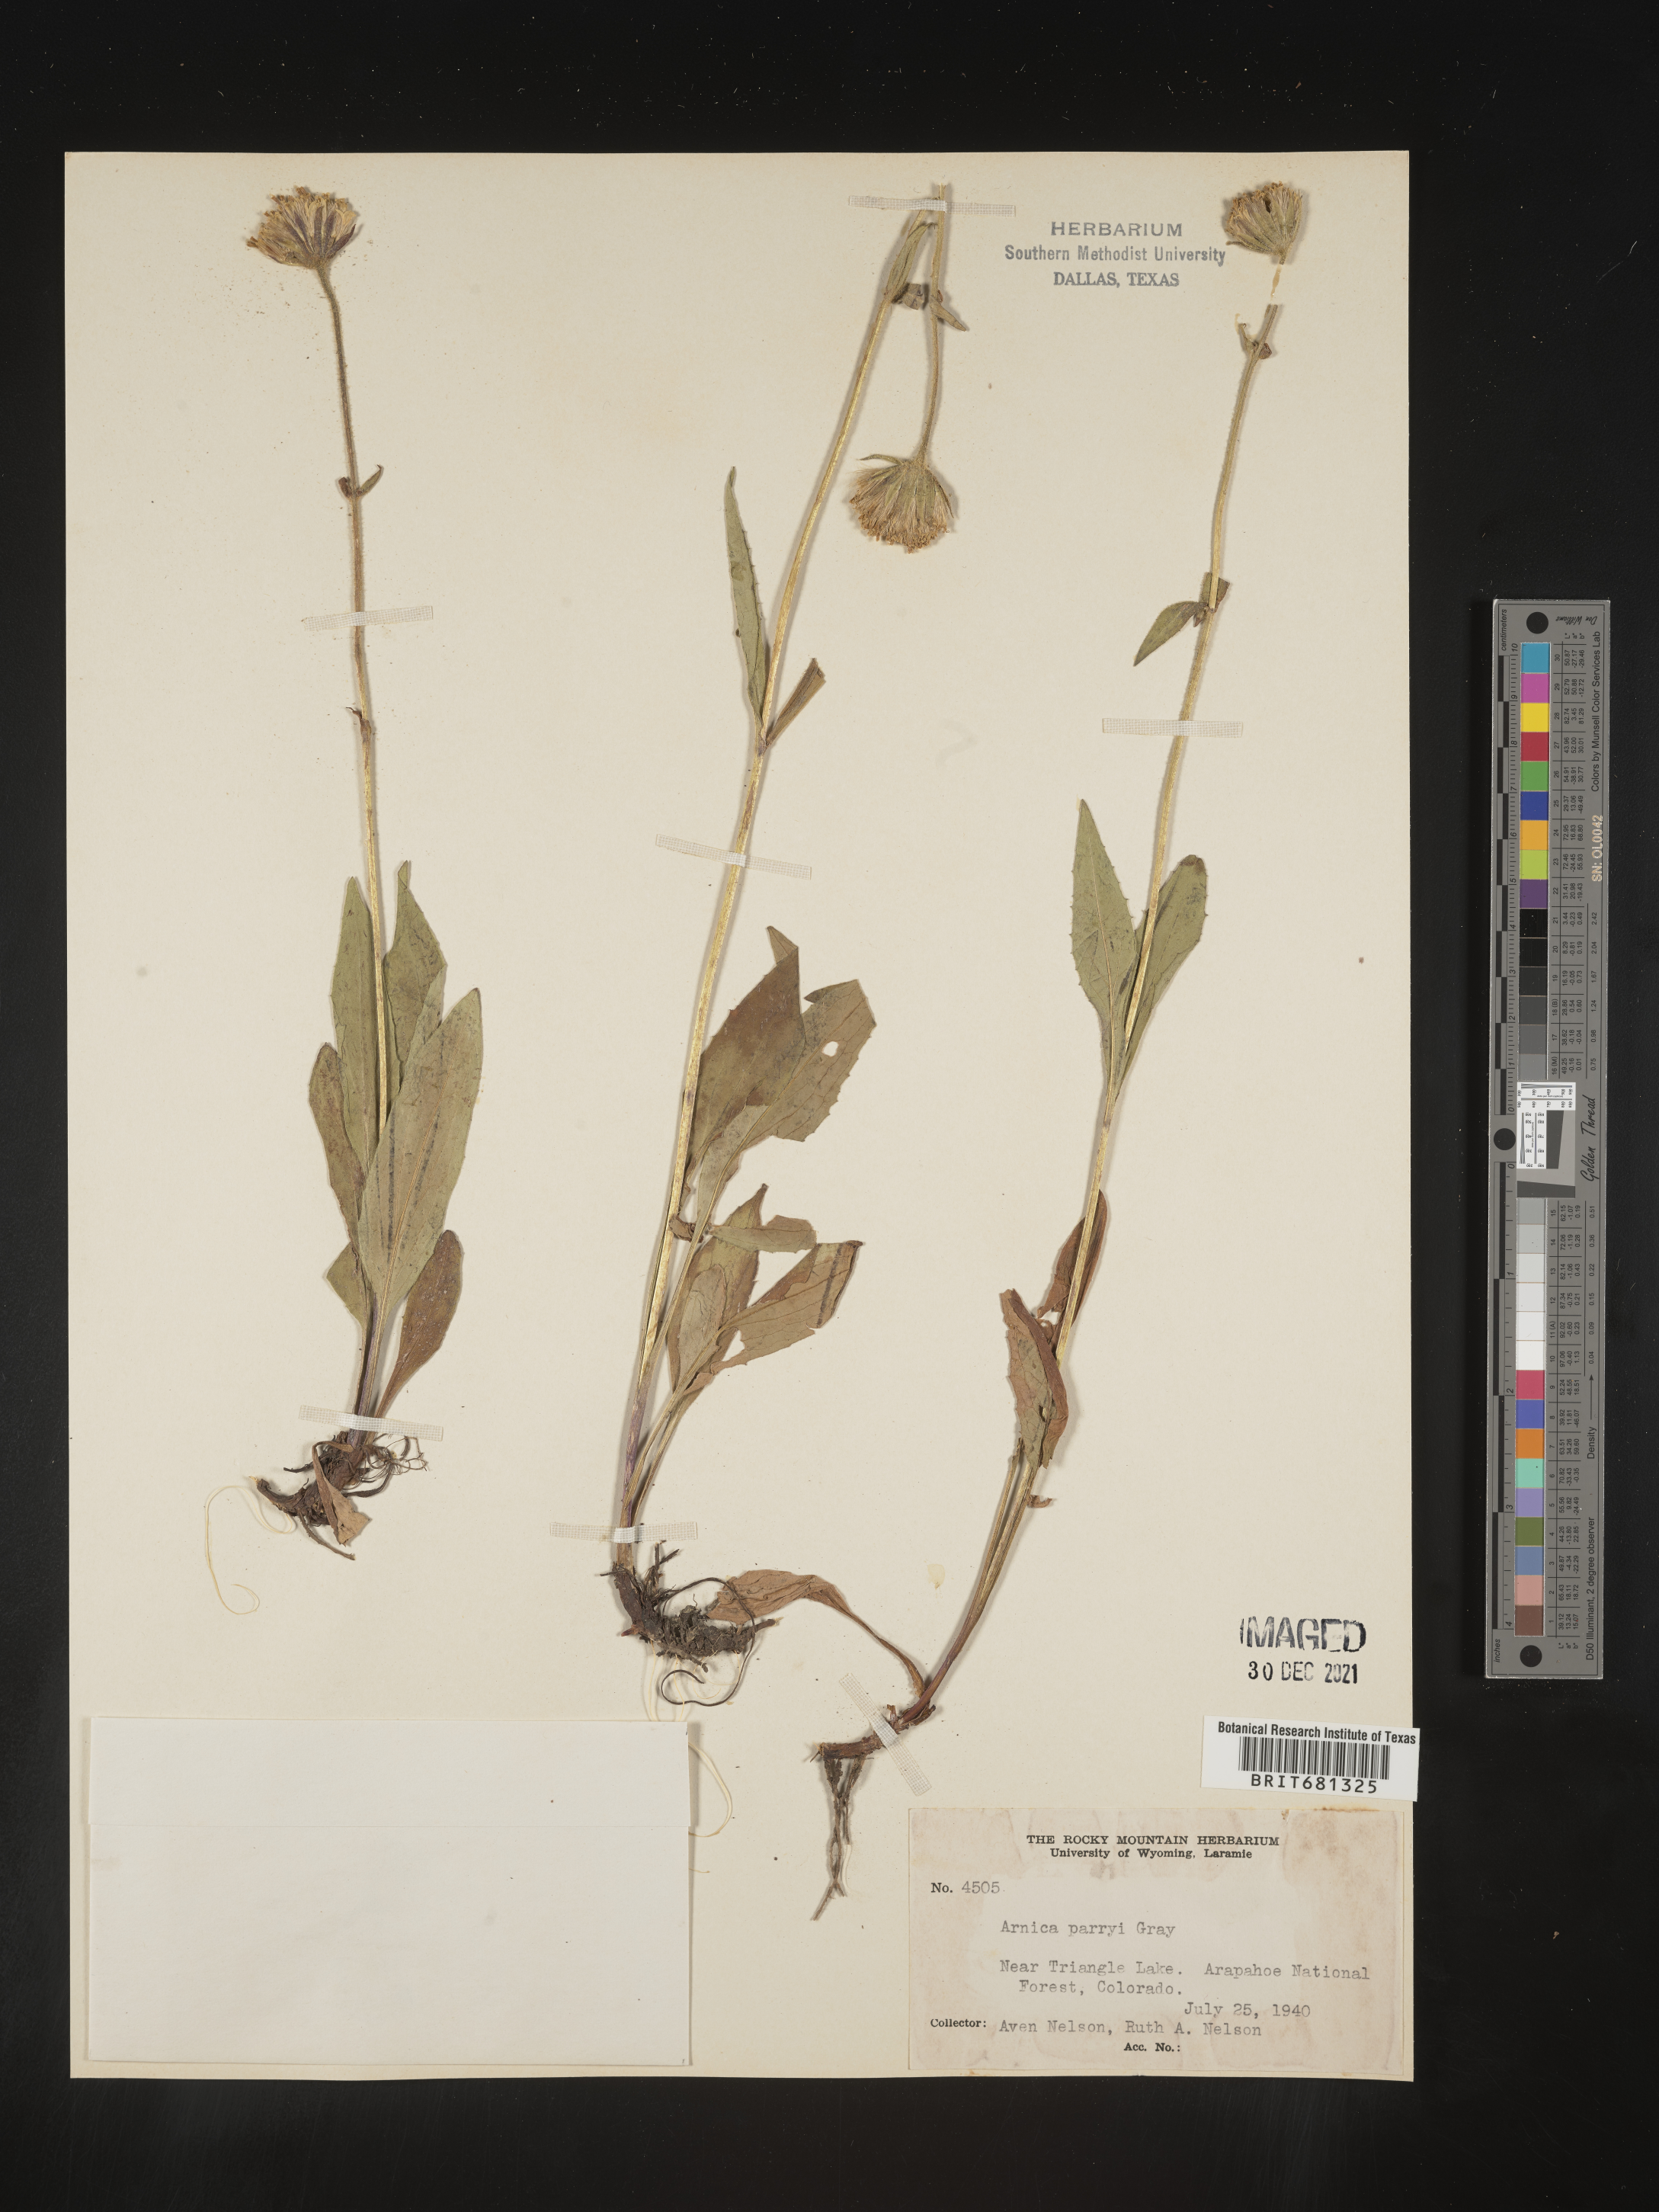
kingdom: Plantae
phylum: Tracheophyta
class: Magnoliopsida
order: Asterales
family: Asteraceae
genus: Arnica
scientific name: Arnica parryi
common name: Parry's arnica
